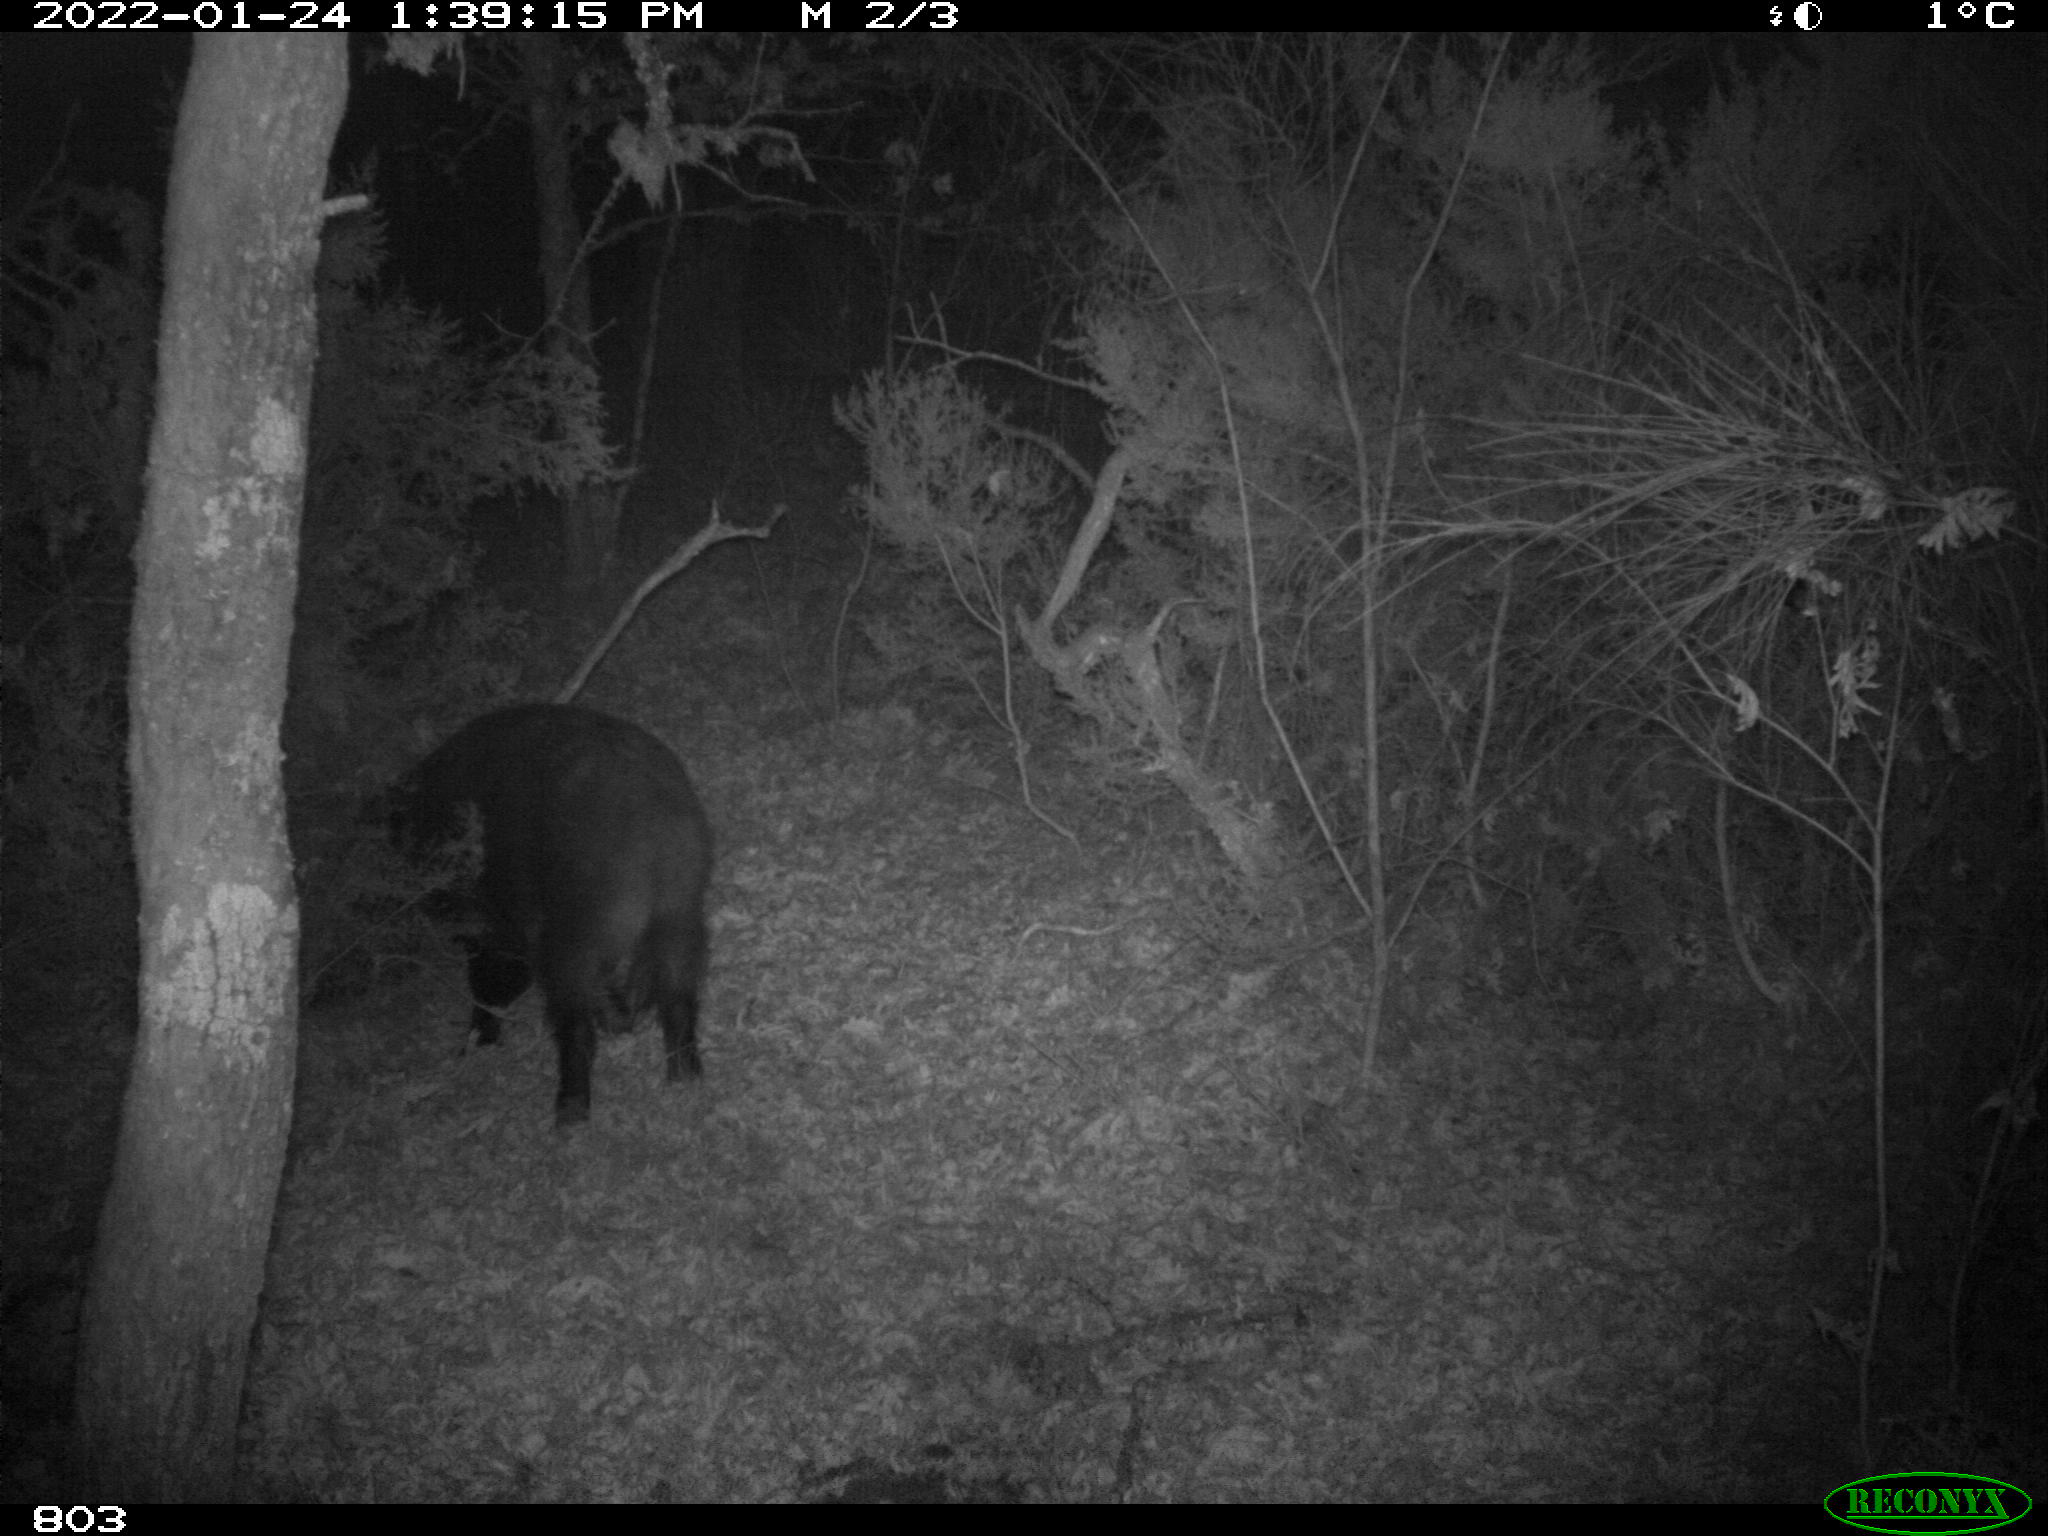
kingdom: Animalia
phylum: Chordata
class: Mammalia
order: Artiodactyla
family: Suidae
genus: Sus
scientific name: Sus scrofa
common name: Wild boar
